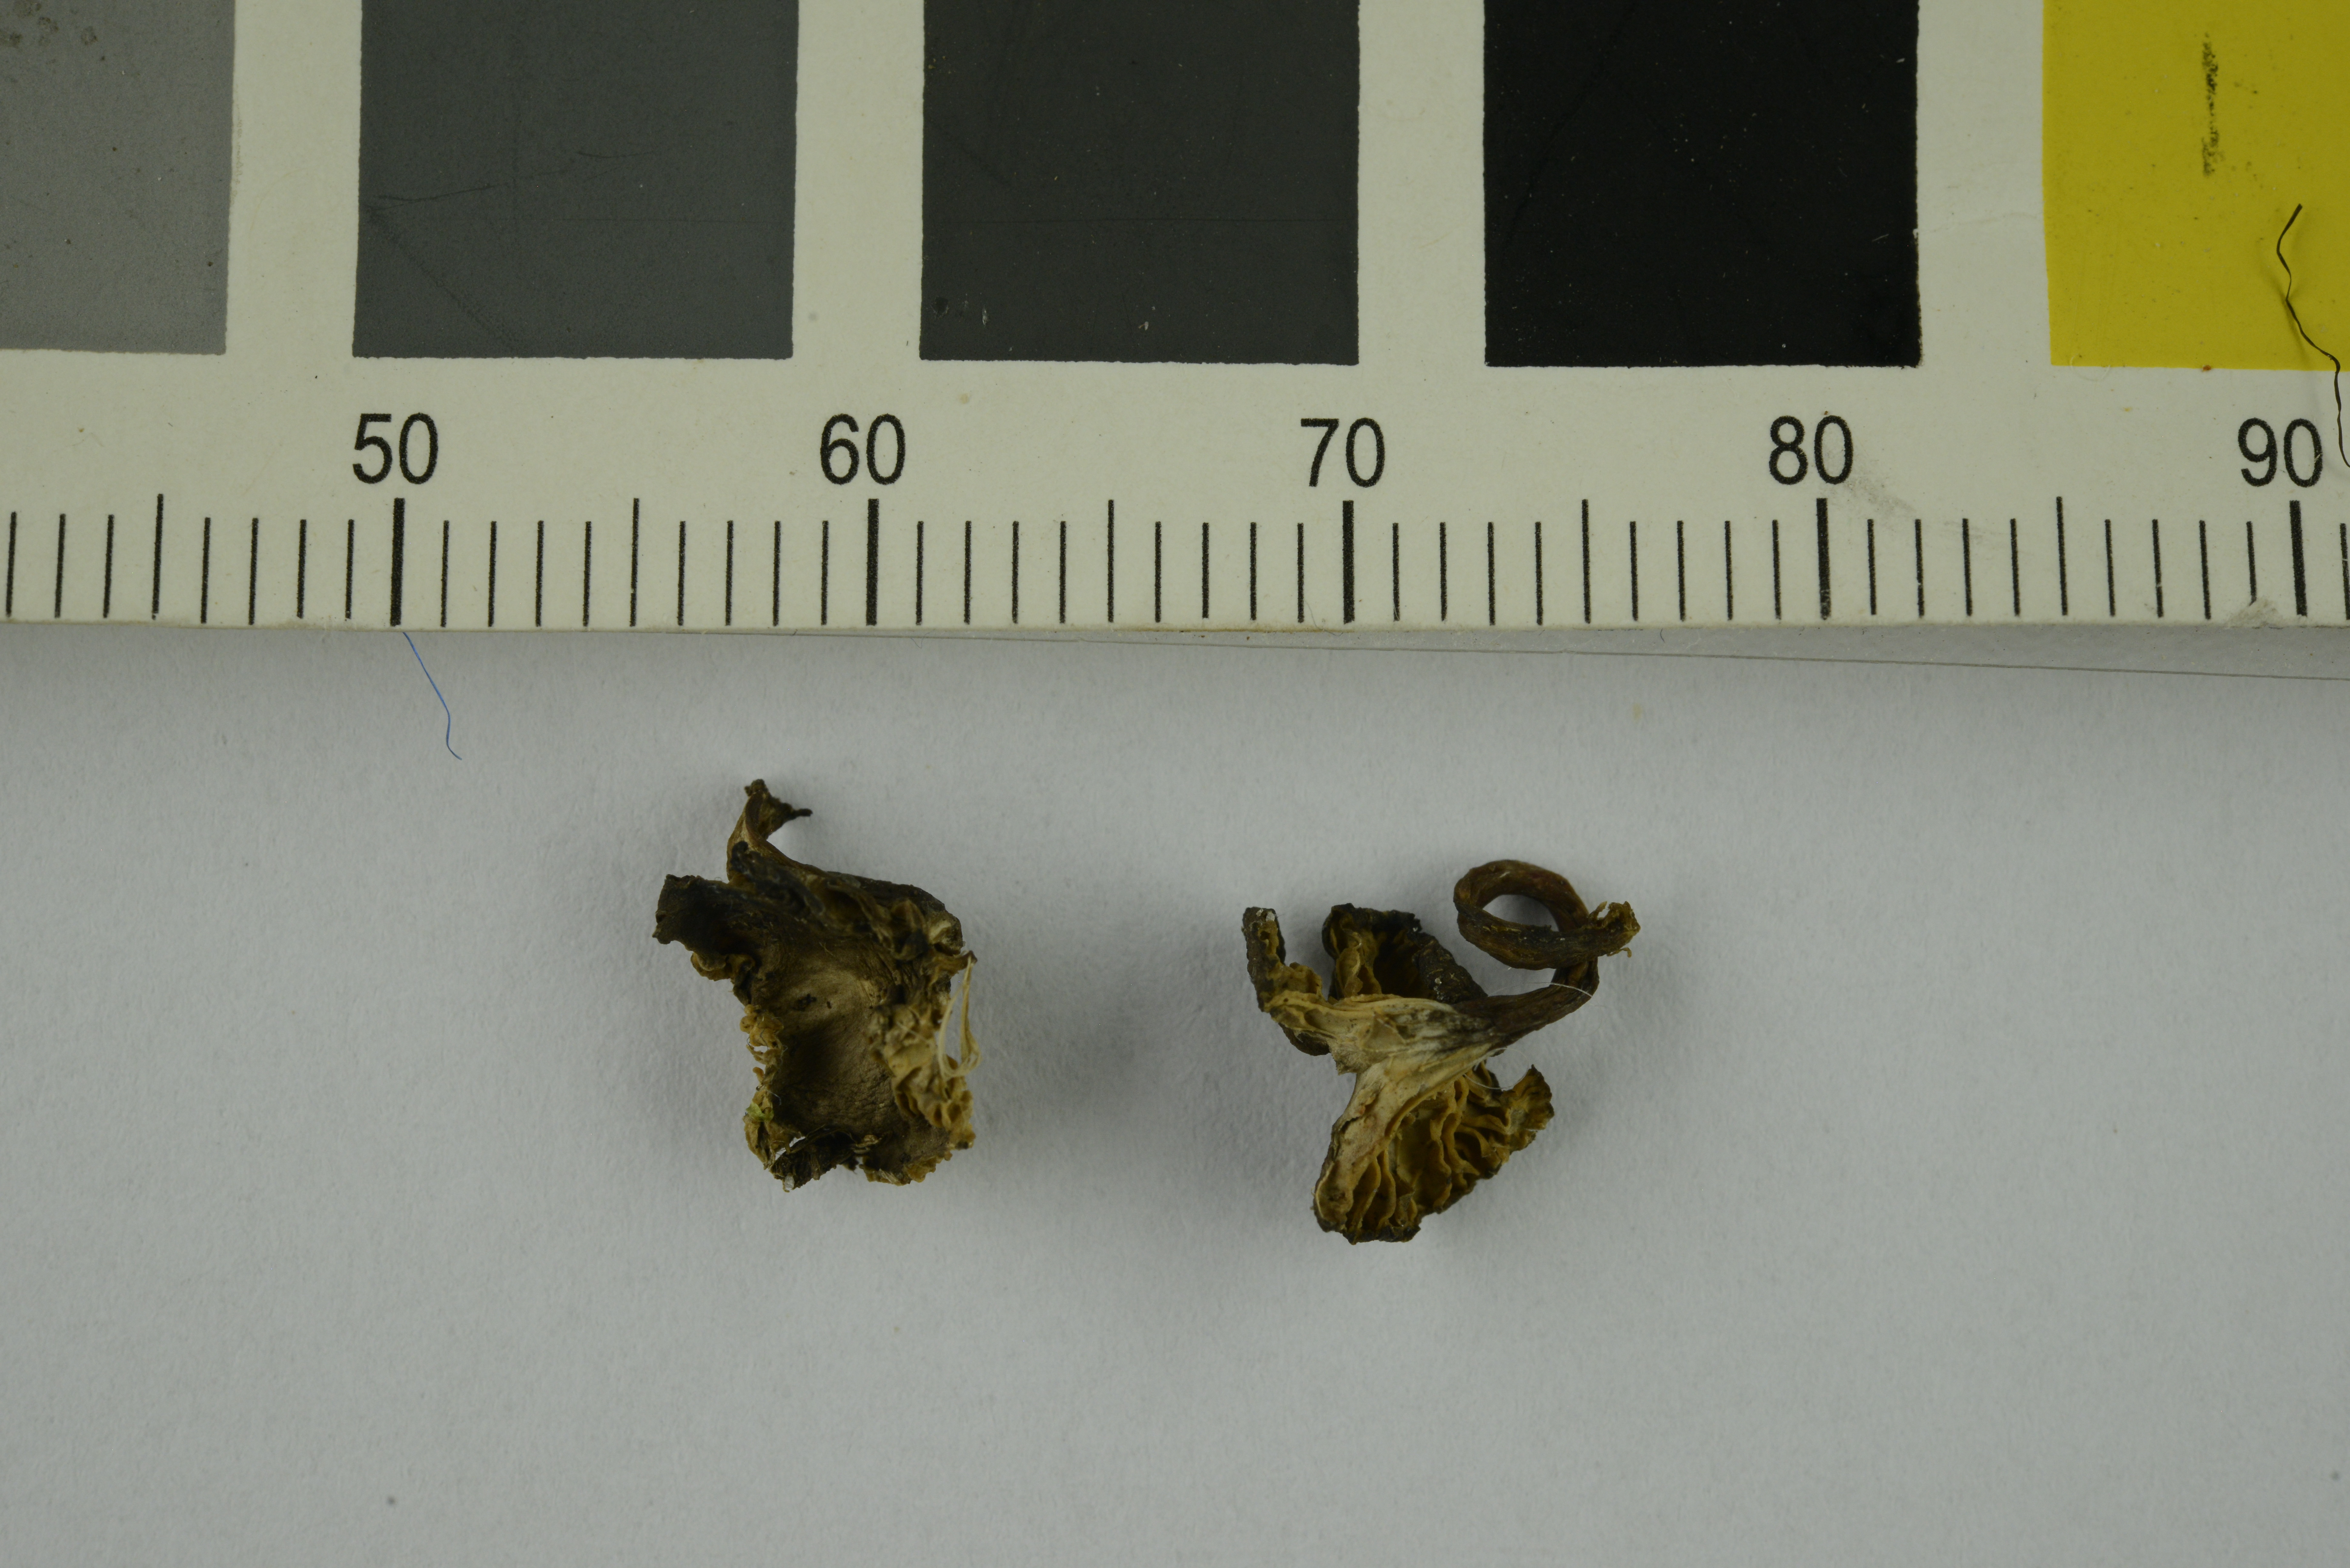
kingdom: Fungi
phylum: Basidiomycota
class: Agaricomycetes
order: Agaricales
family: Clavariaceae
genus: Hodophilus
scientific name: Hodophilus hymenocephalus
